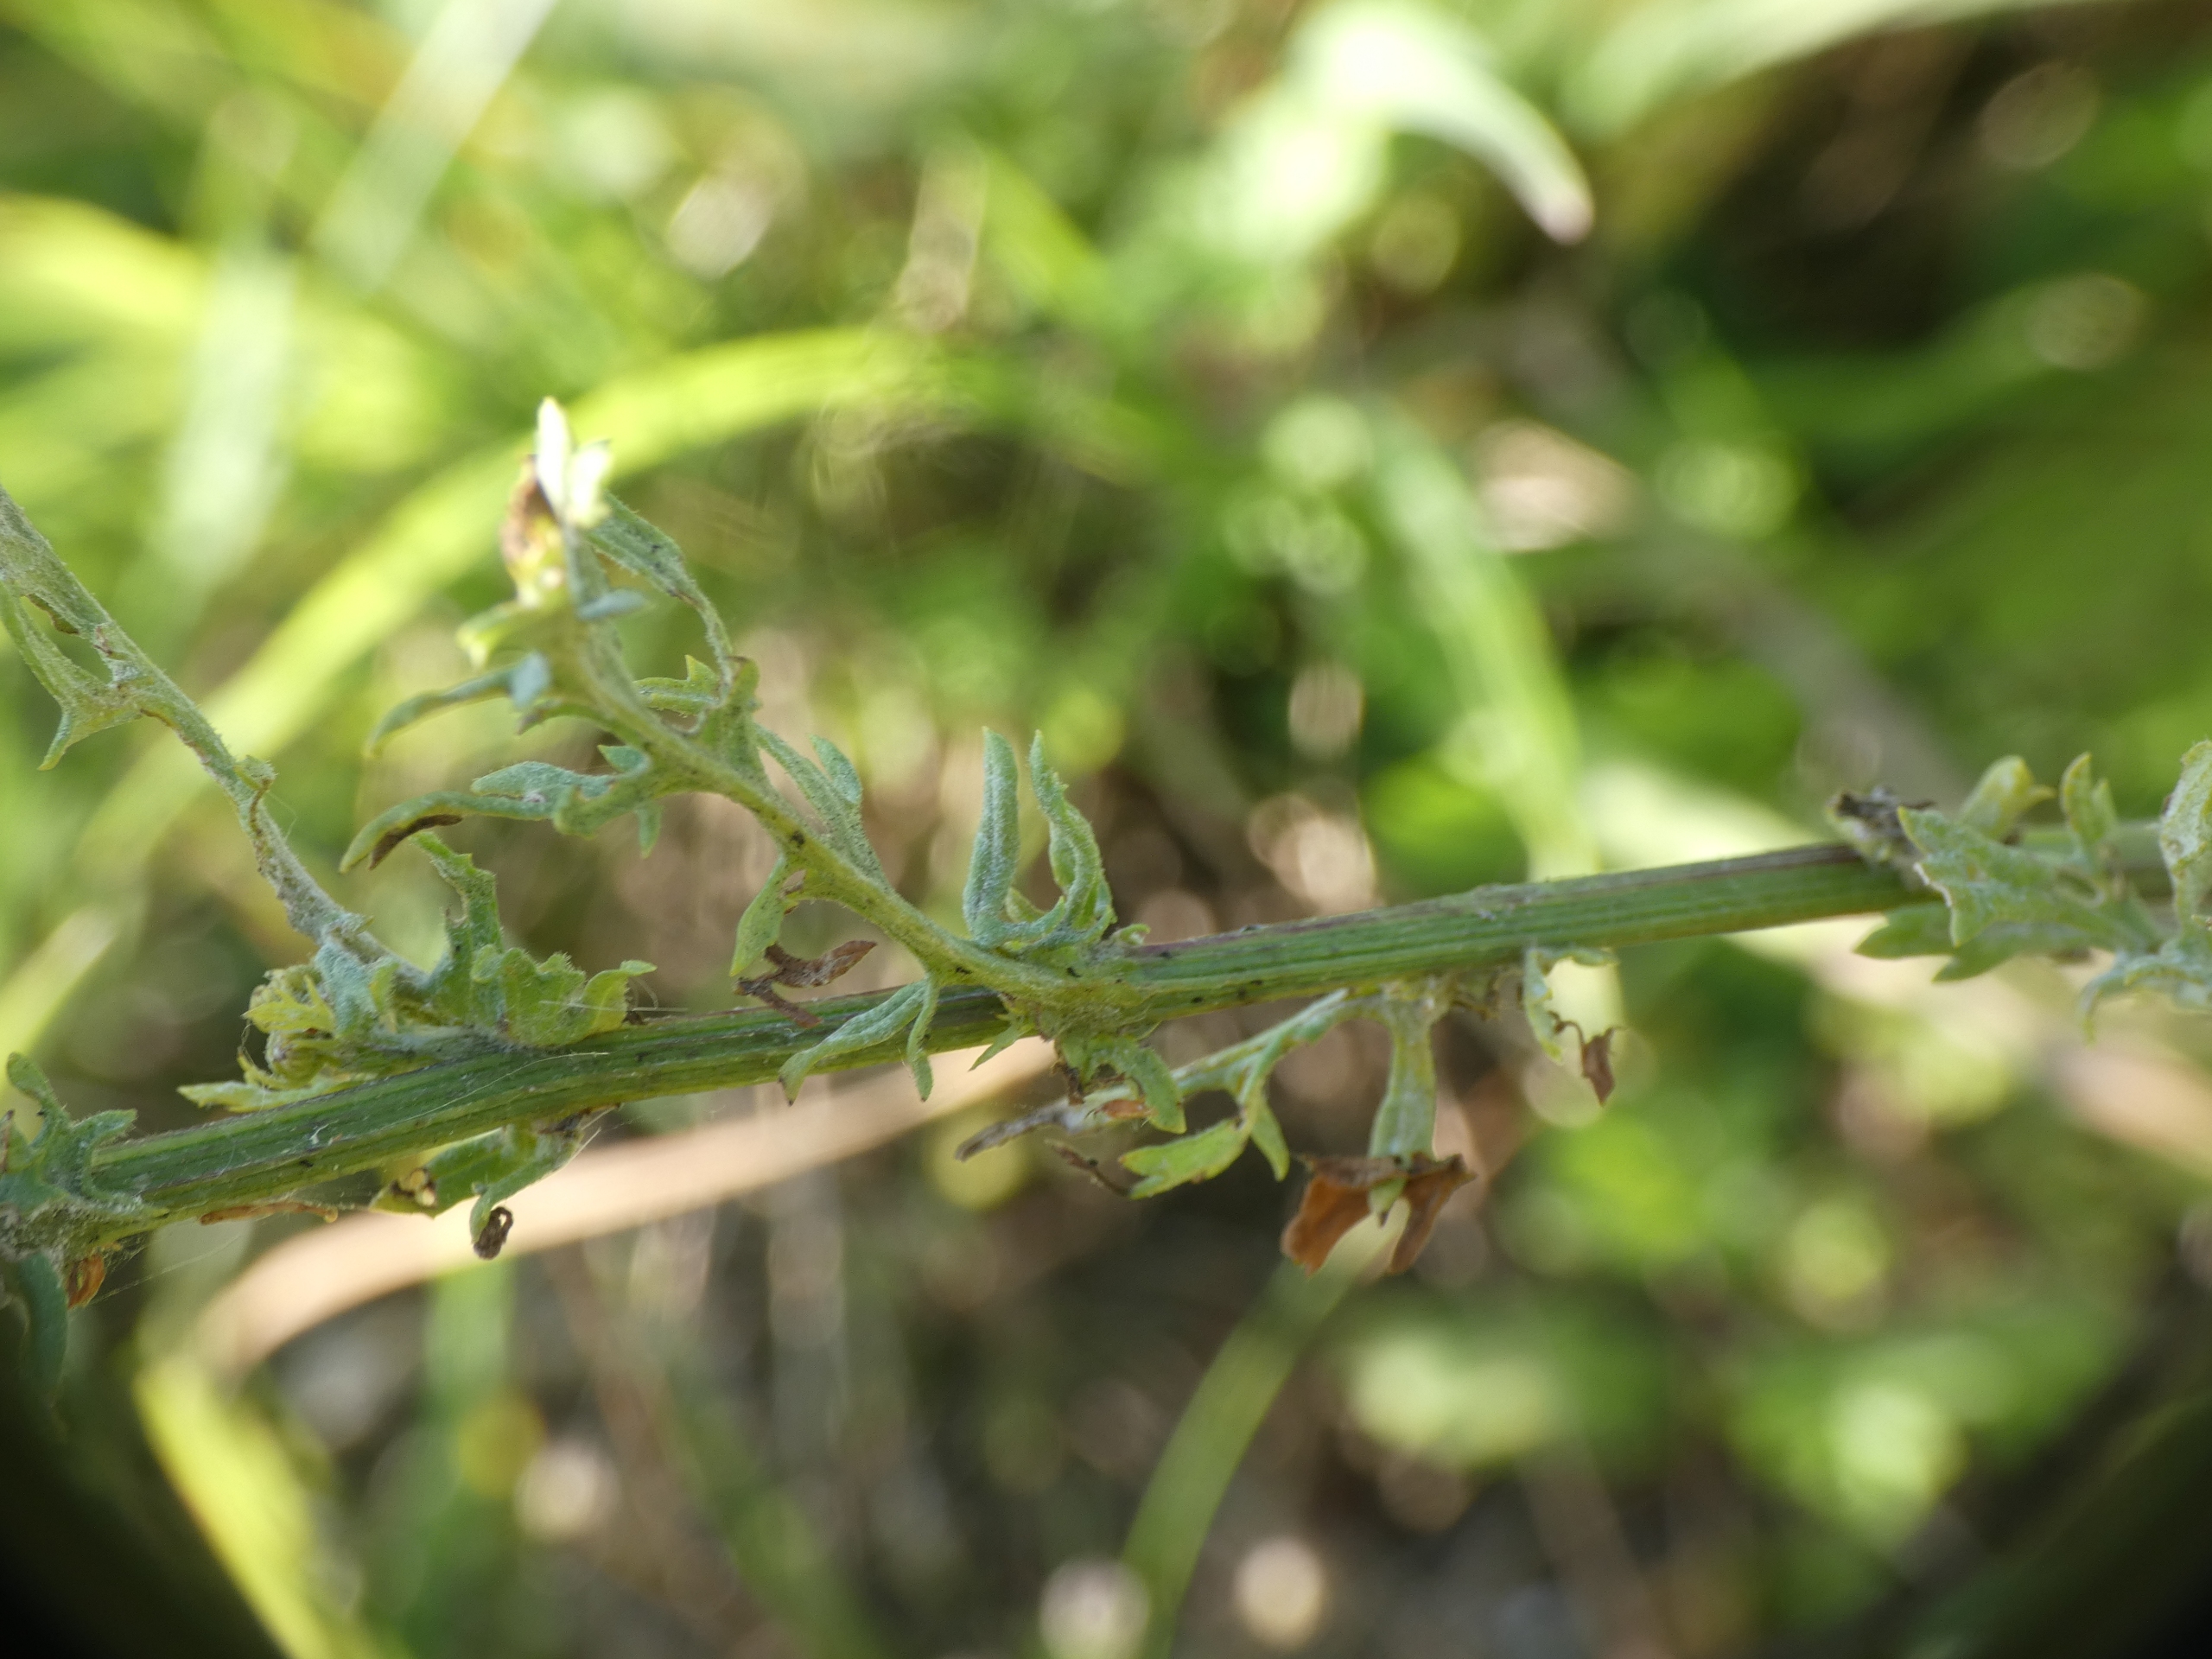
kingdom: Plantae
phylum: Tracheophyta
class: Magnoliopsida
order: Asterales
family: Asteraceae
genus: Jacobaea
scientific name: Jacobaea vulgaris
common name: Eng-brandbæger
